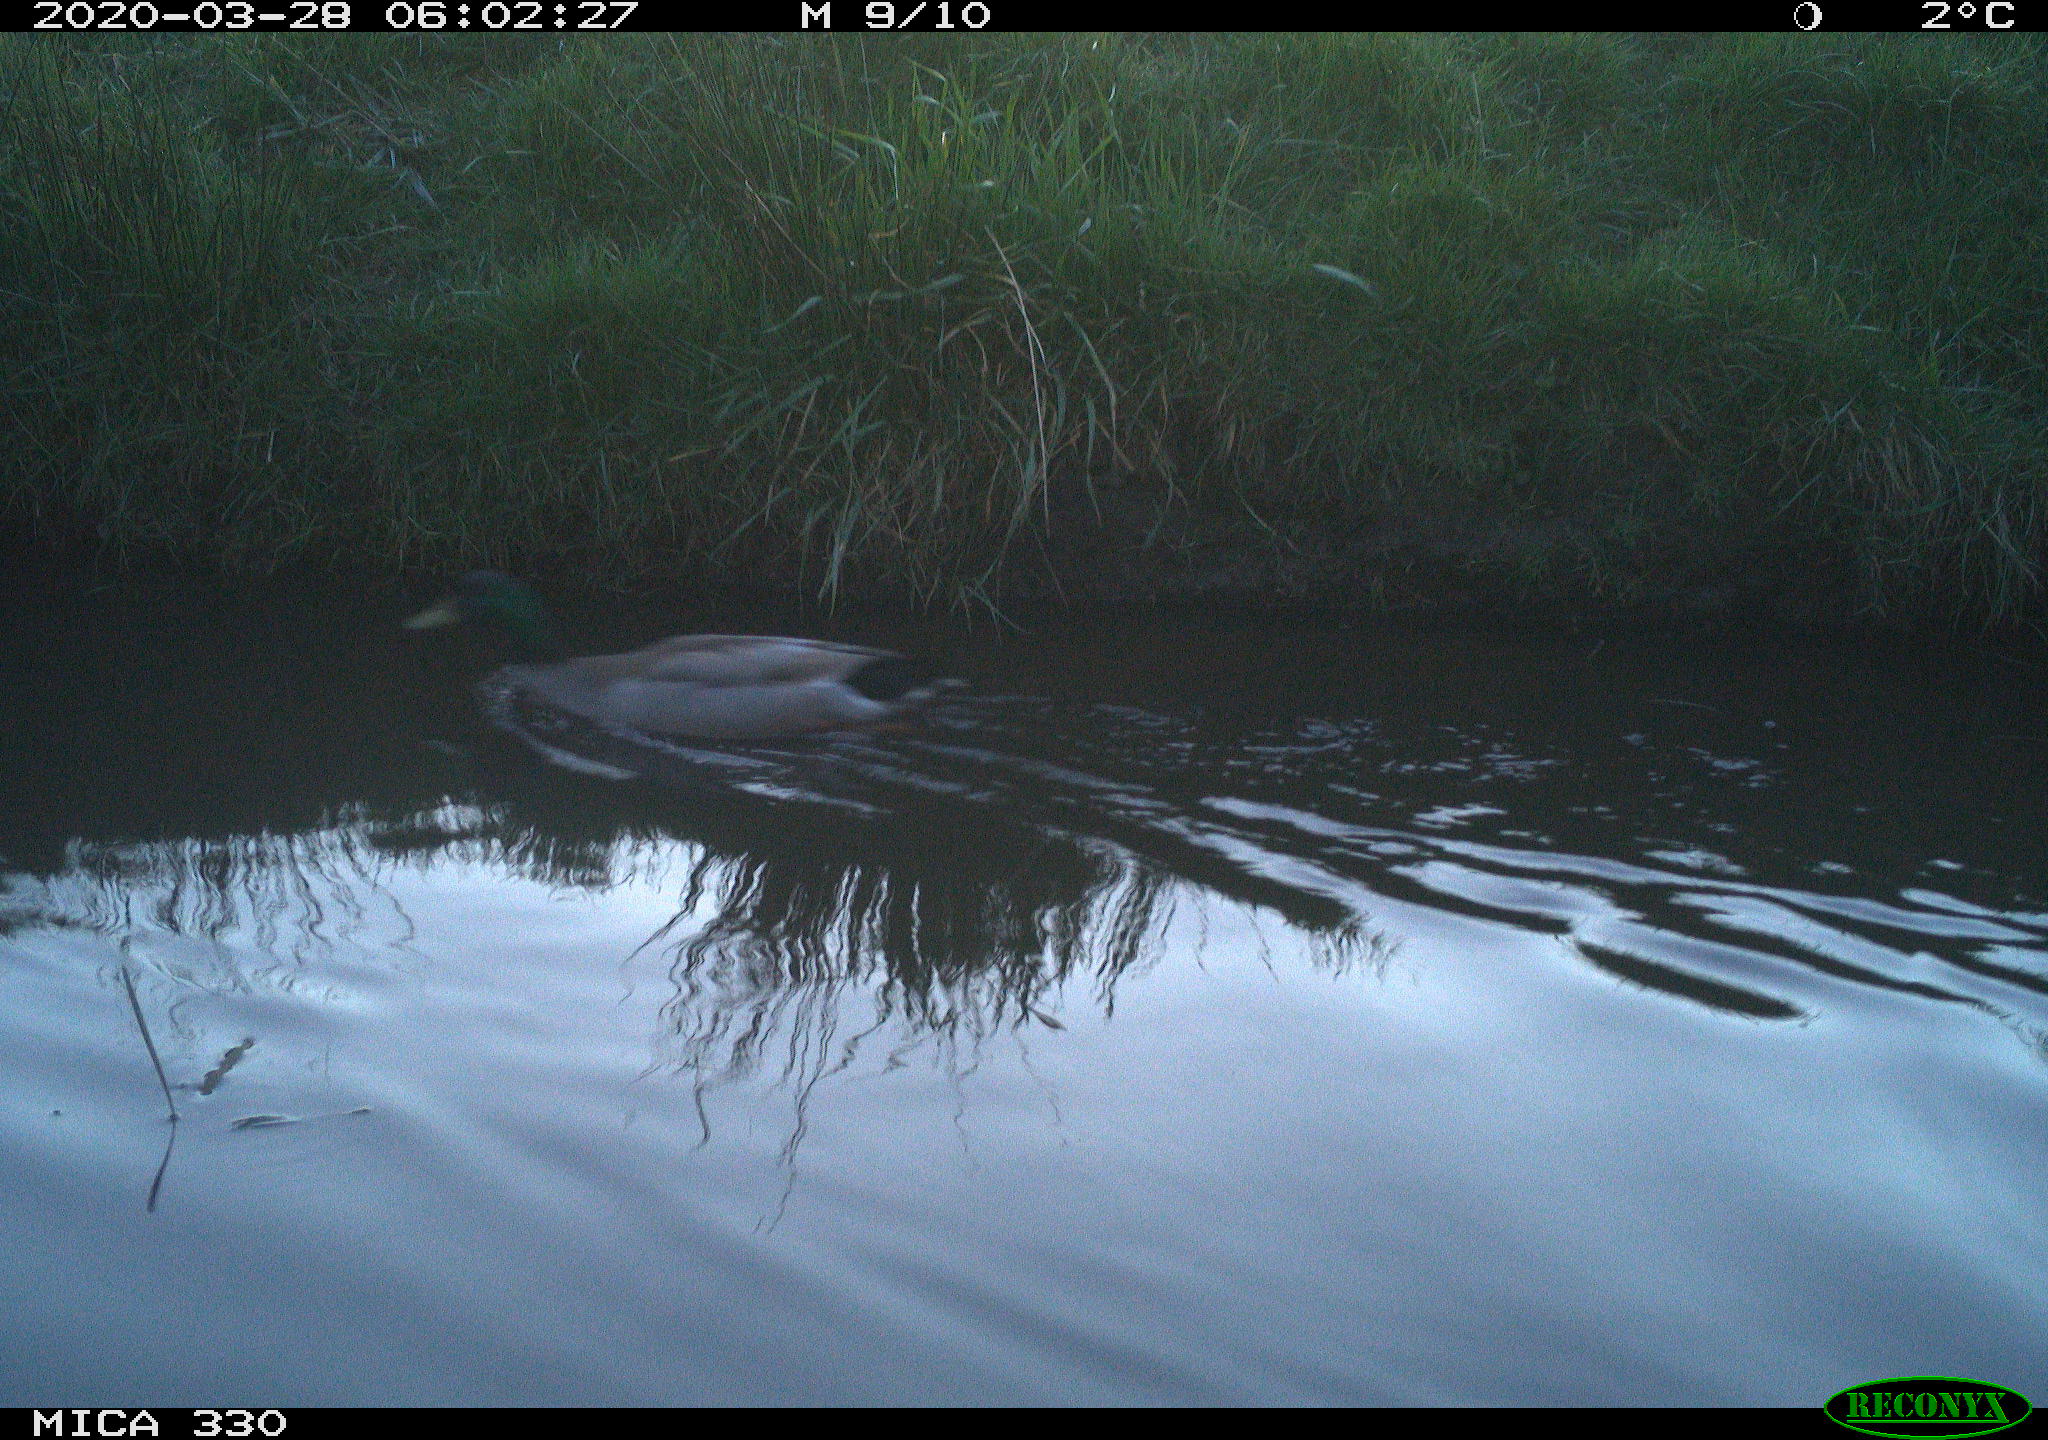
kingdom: Animalia
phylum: Chordata
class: Aves
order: Anseriformes
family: Anatidae
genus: Anas
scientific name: Anas platyrhynchos
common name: Mallard
